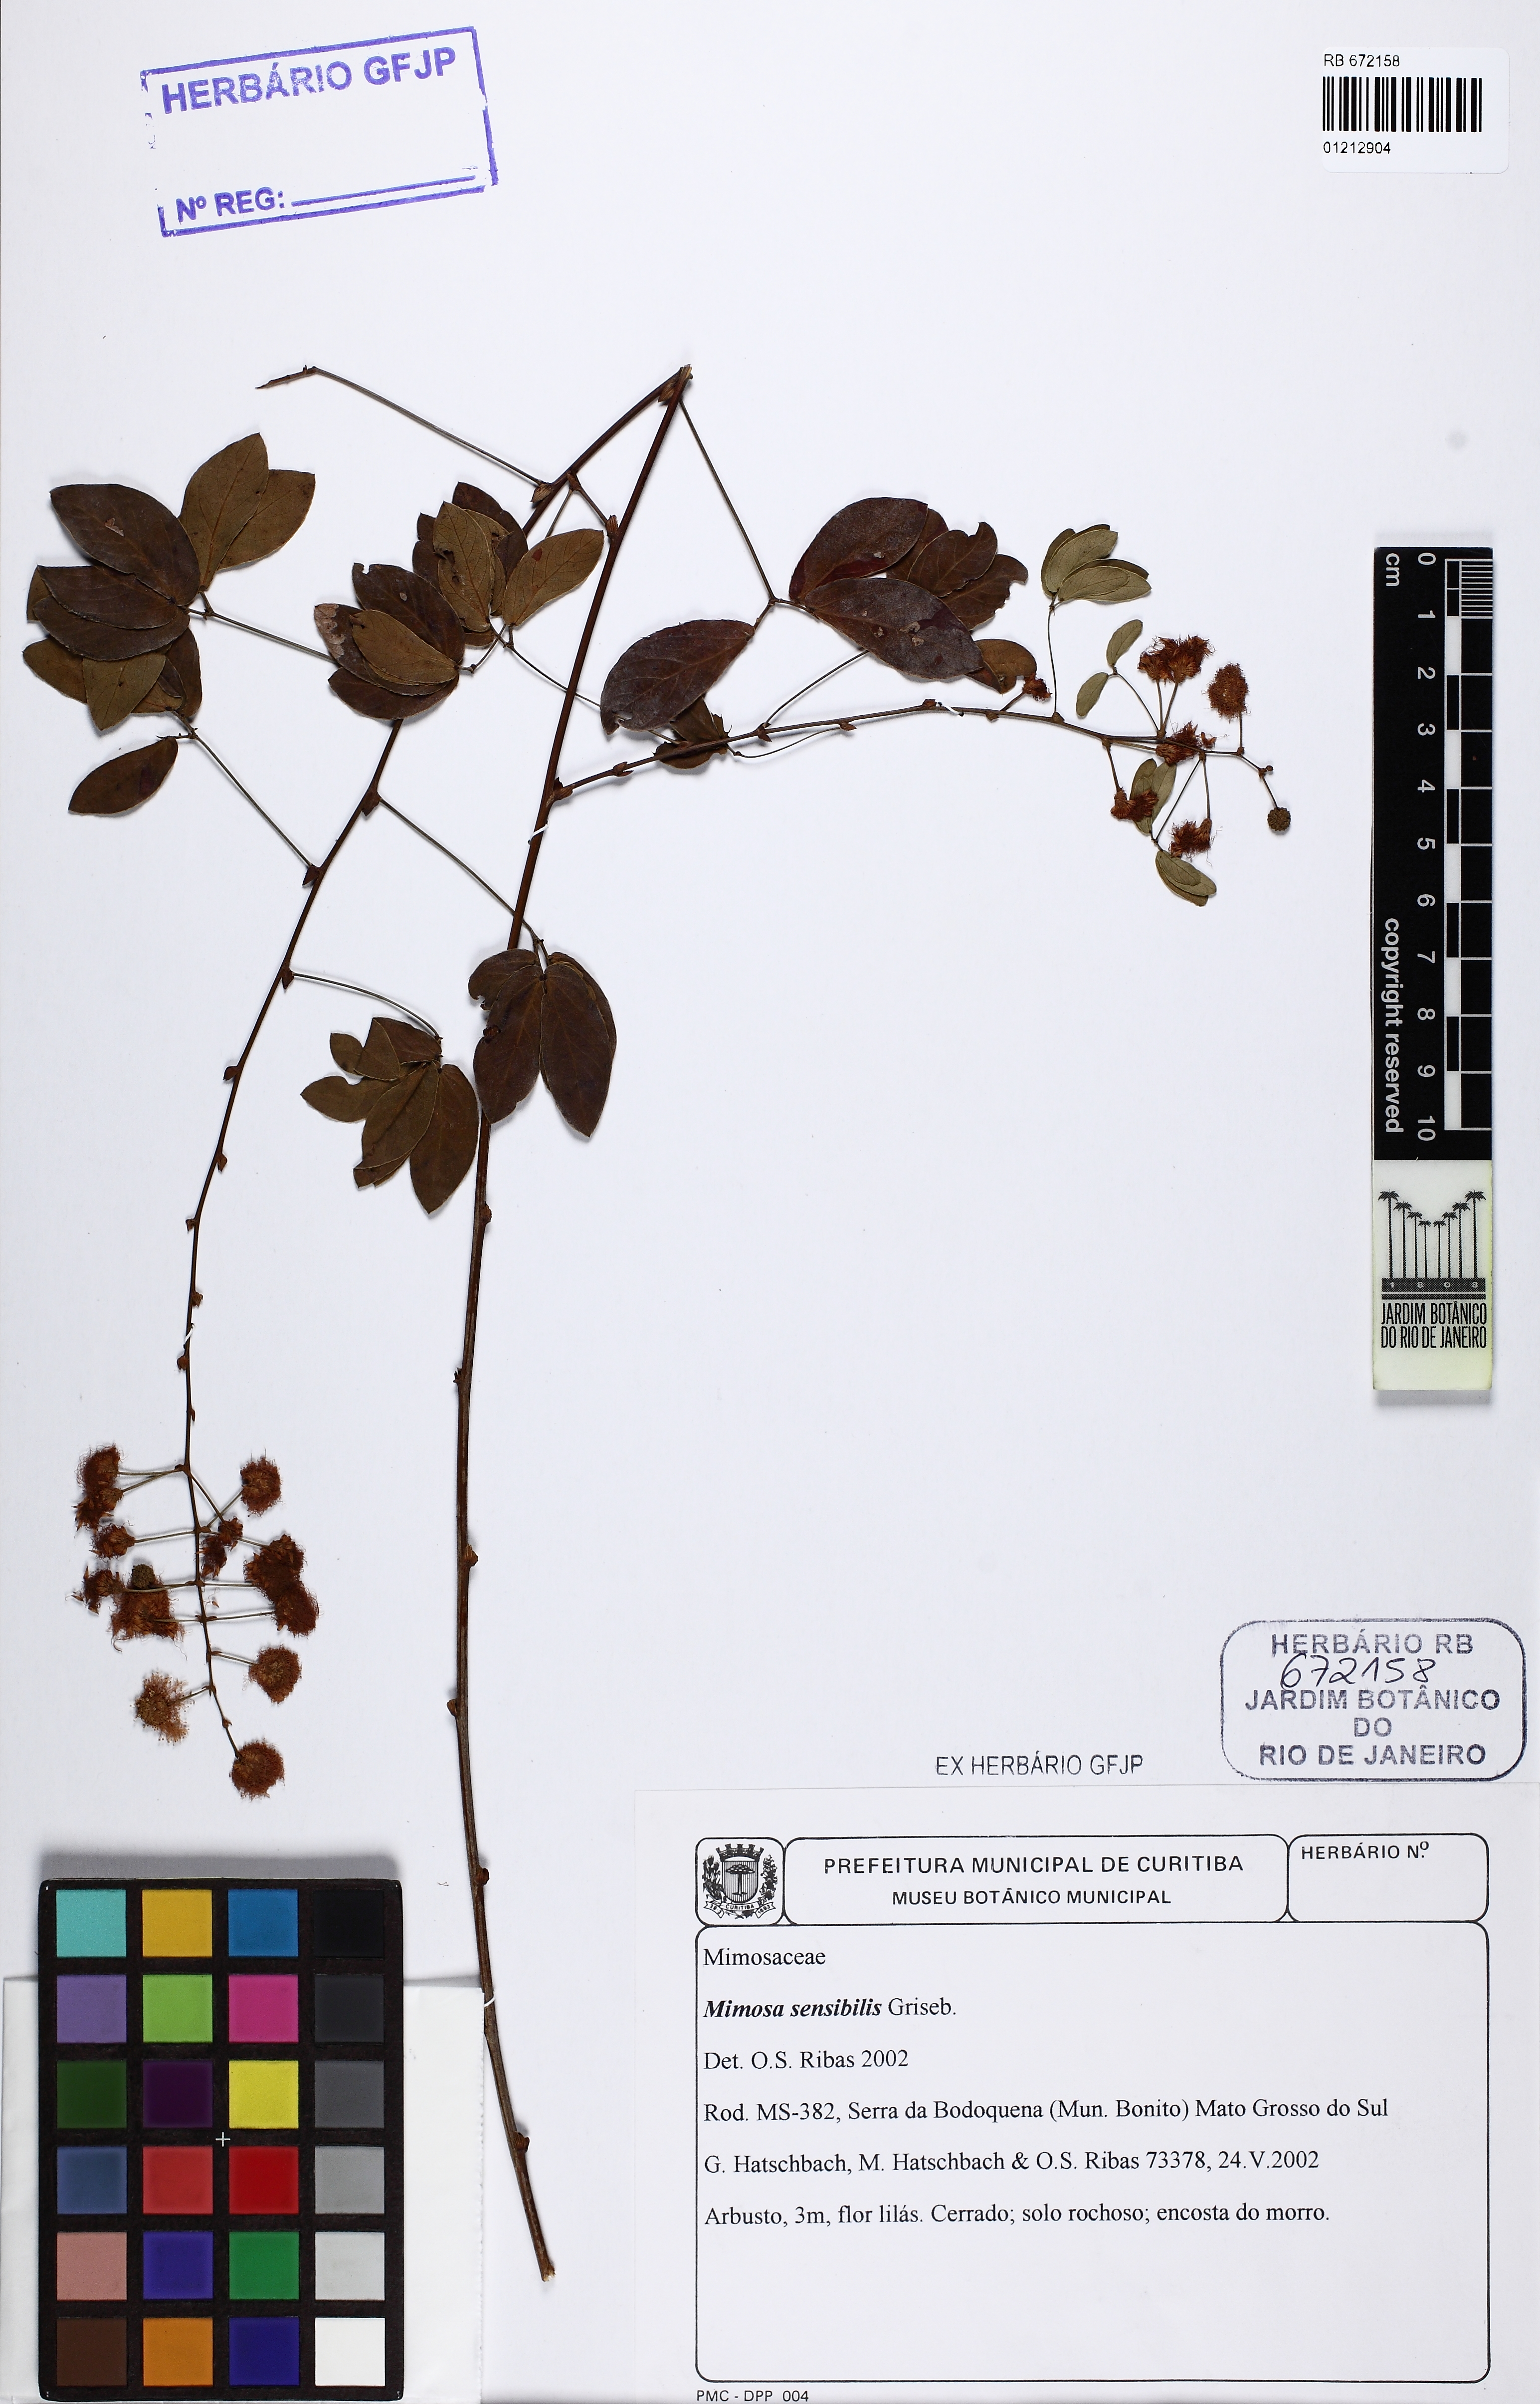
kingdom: Plantae
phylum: Tracheophyta
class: Magnoliopsida
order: Fabales
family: Fabaceae
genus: Mimosa
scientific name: Mimosa sensibilis
